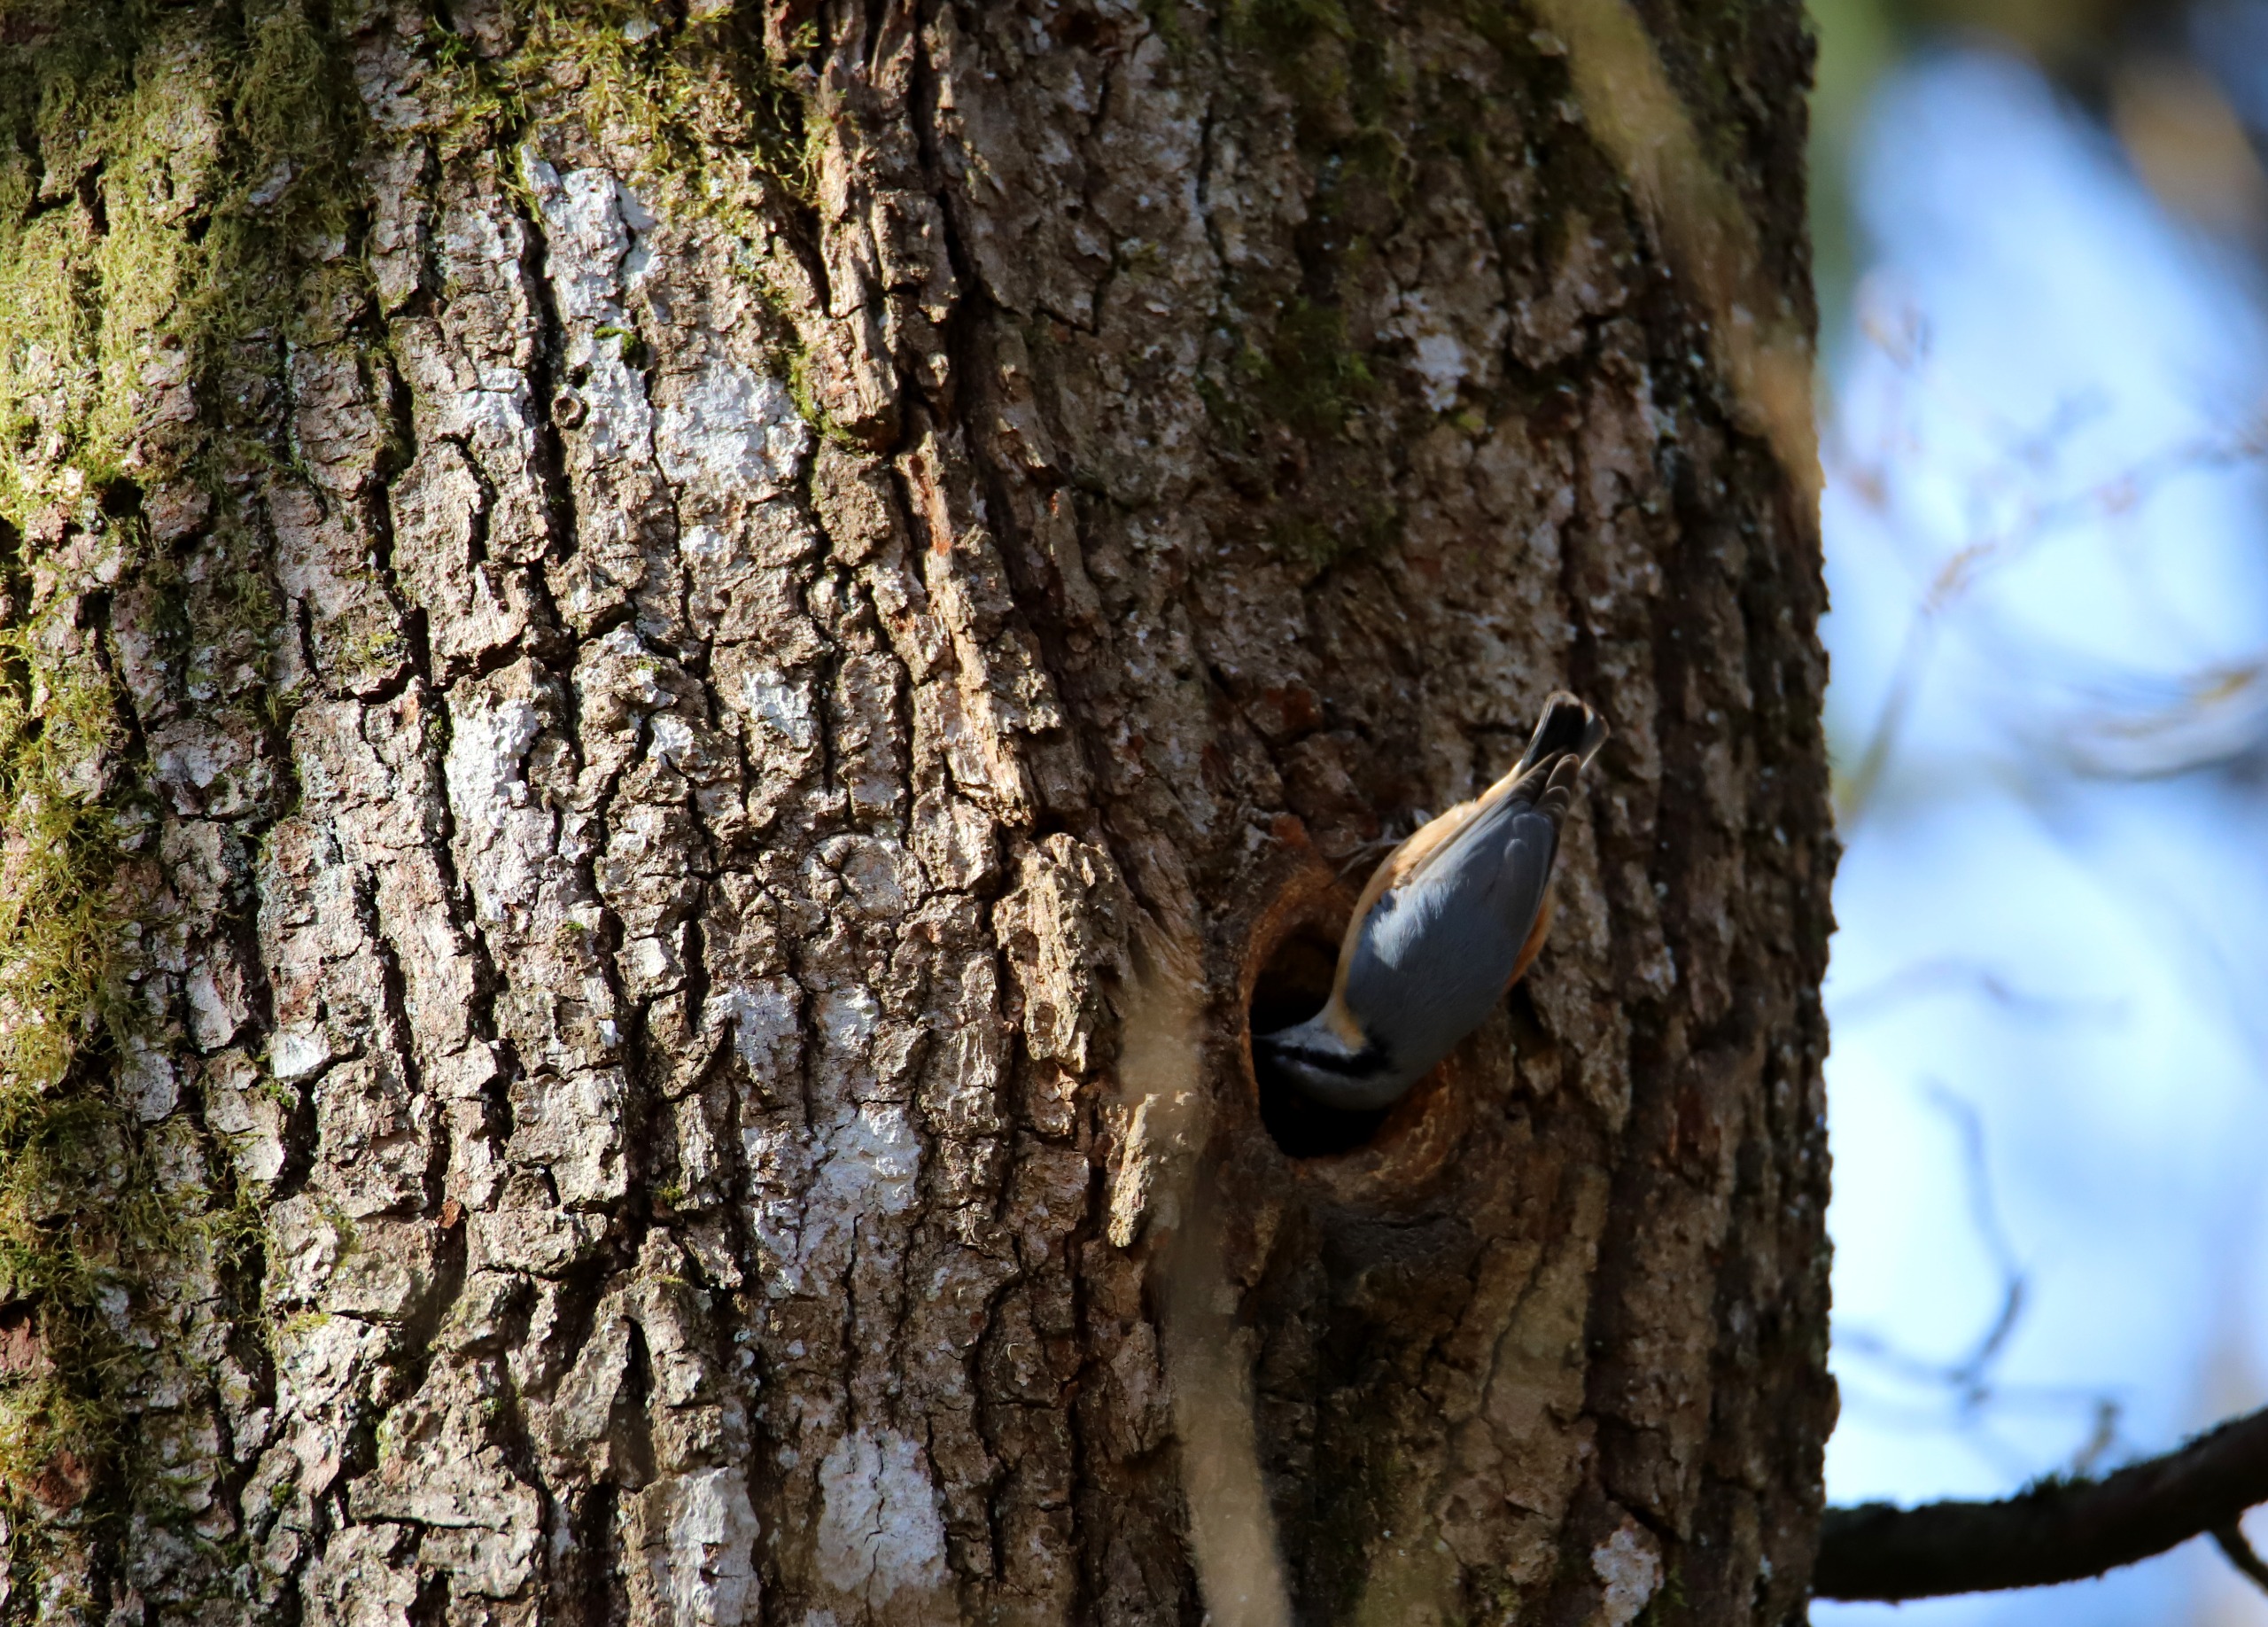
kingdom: Animalia
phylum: Chordata
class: Aves
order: Passeriformes
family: Sittidae
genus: Sitta
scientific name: Sitta europaea
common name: Spætmejse
